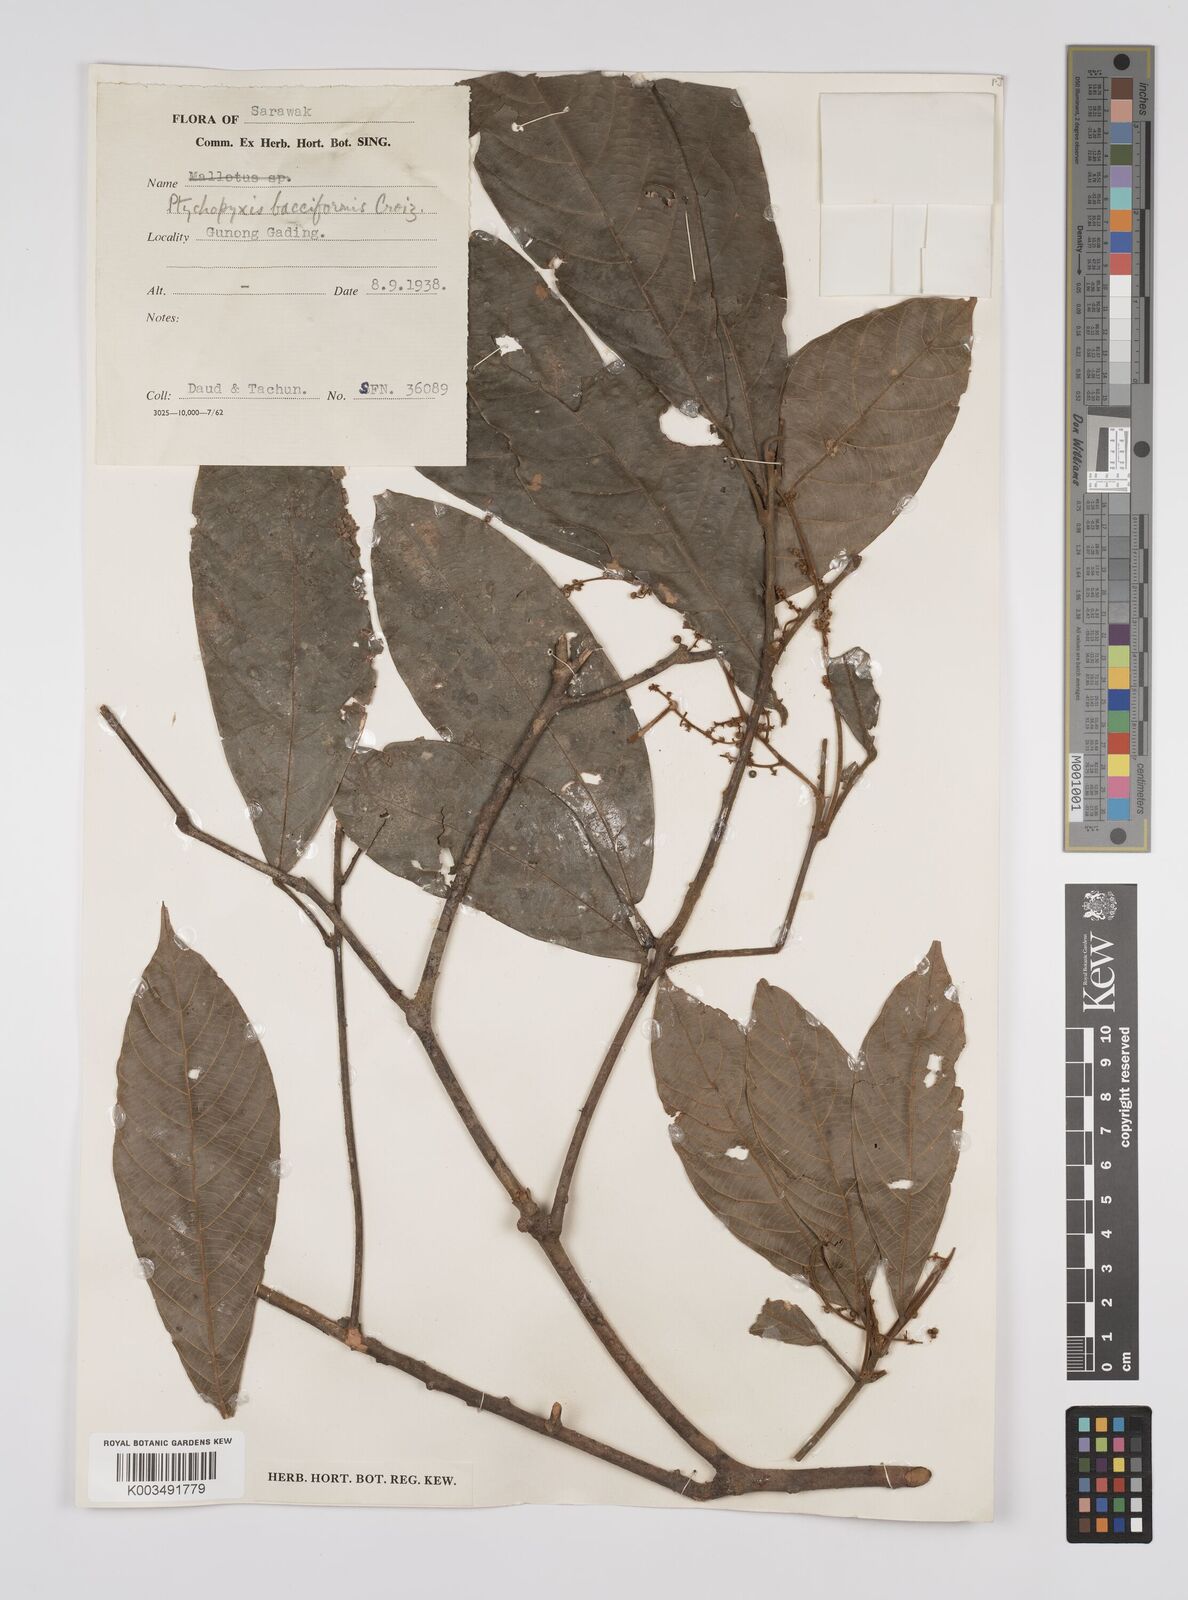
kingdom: Plantae
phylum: Tracheophyta
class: Magnoliopsida
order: Malpighiales
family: Euphorbiaceae
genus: Ptychopyxis
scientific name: Ptychopyxis bacciformis
